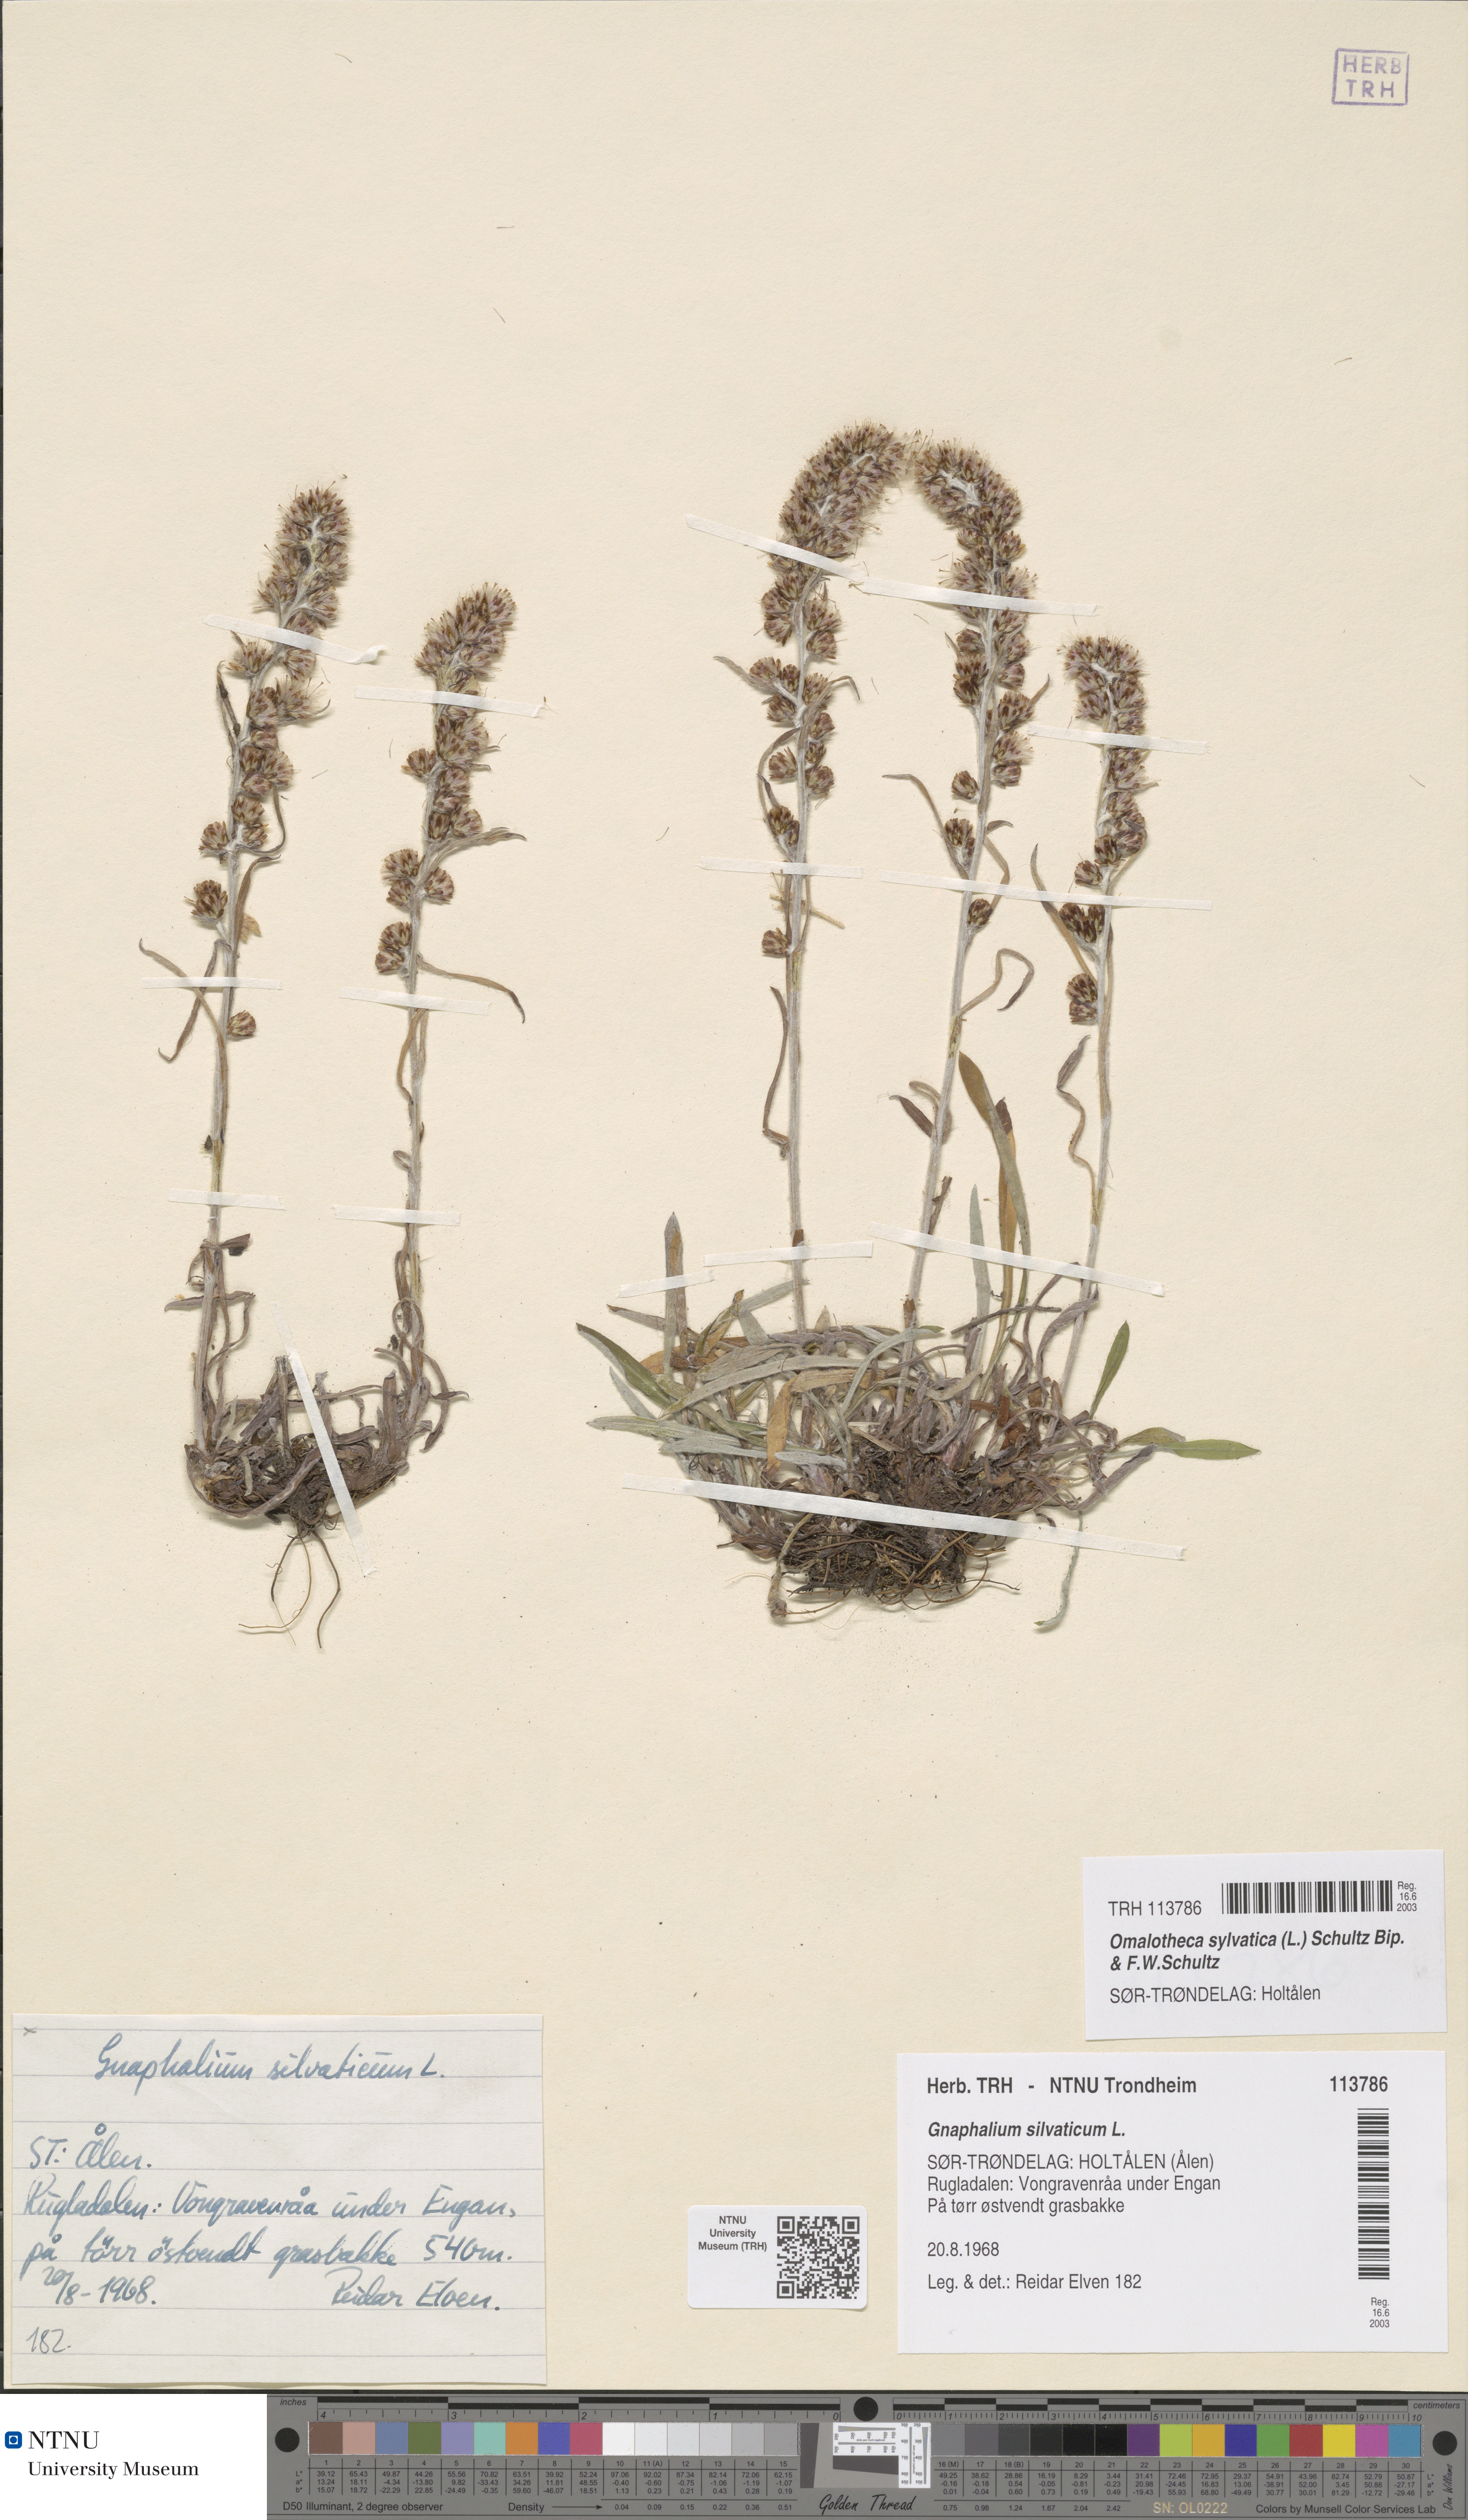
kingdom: Plantae
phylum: Tracheophyta
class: Magnoliopsida
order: Asterales
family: Asteraceae
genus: Omalotheca
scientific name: Omalotheca sylvatica
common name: Heath cudweed
